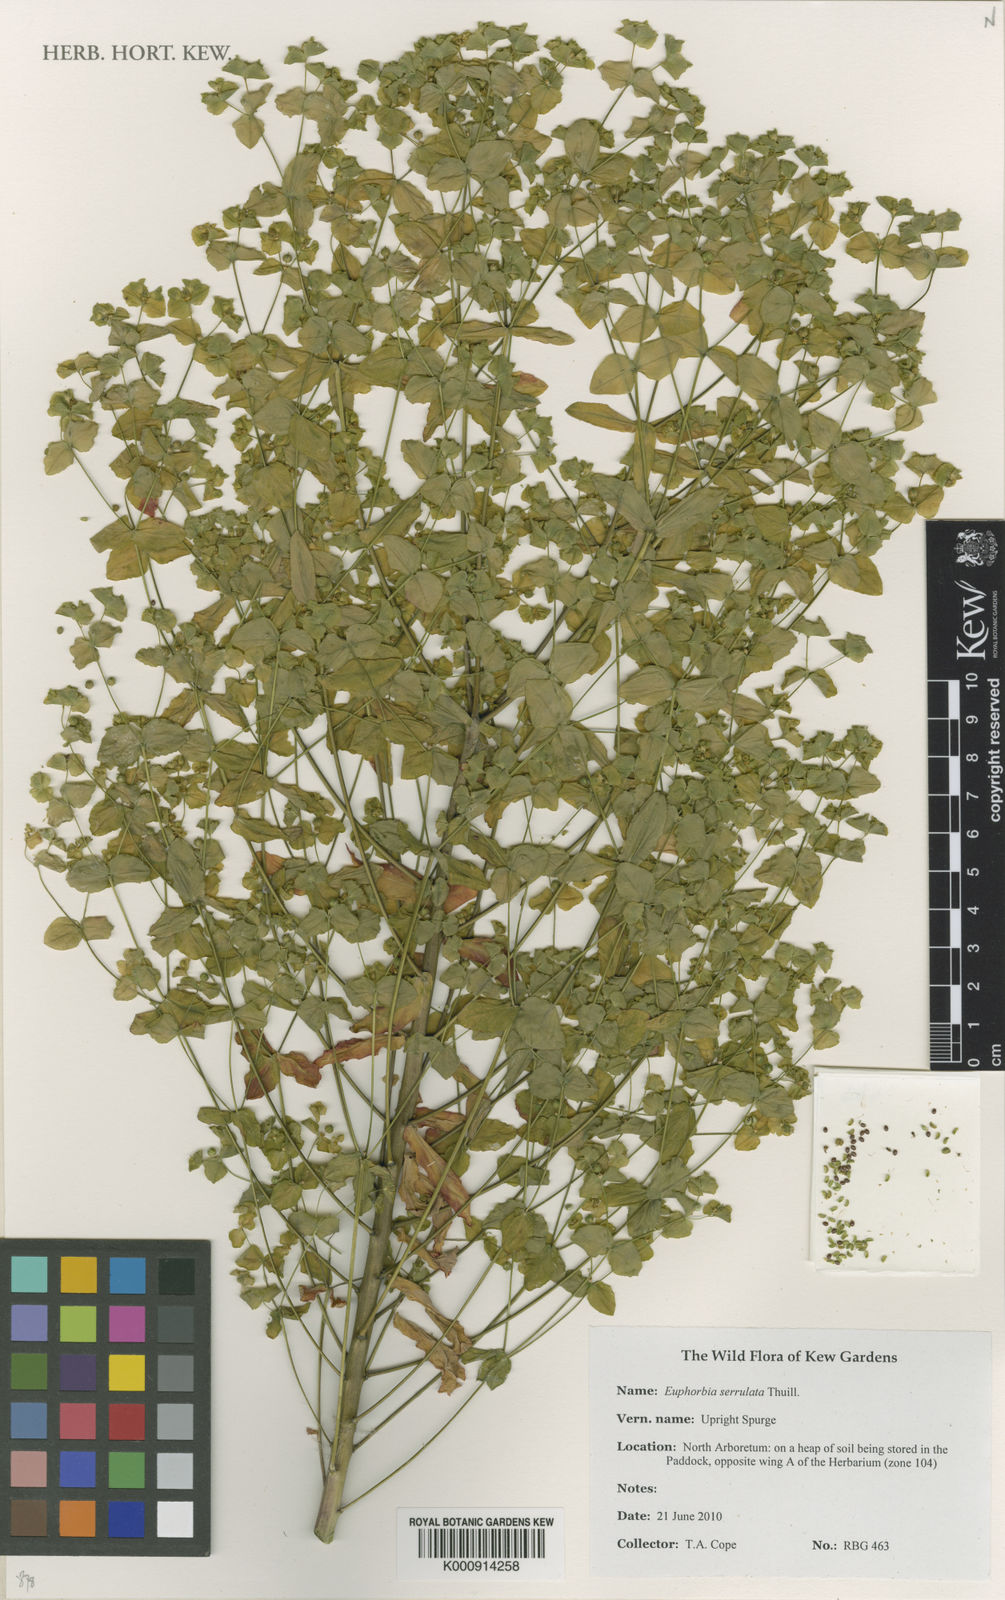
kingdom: Plantae
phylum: Tracheophyta
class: Magnoliopsida
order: Malpighiales
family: Euphorbiaceae
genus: Euphorbia
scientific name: Euphorbia stricta
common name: Upright spurge
